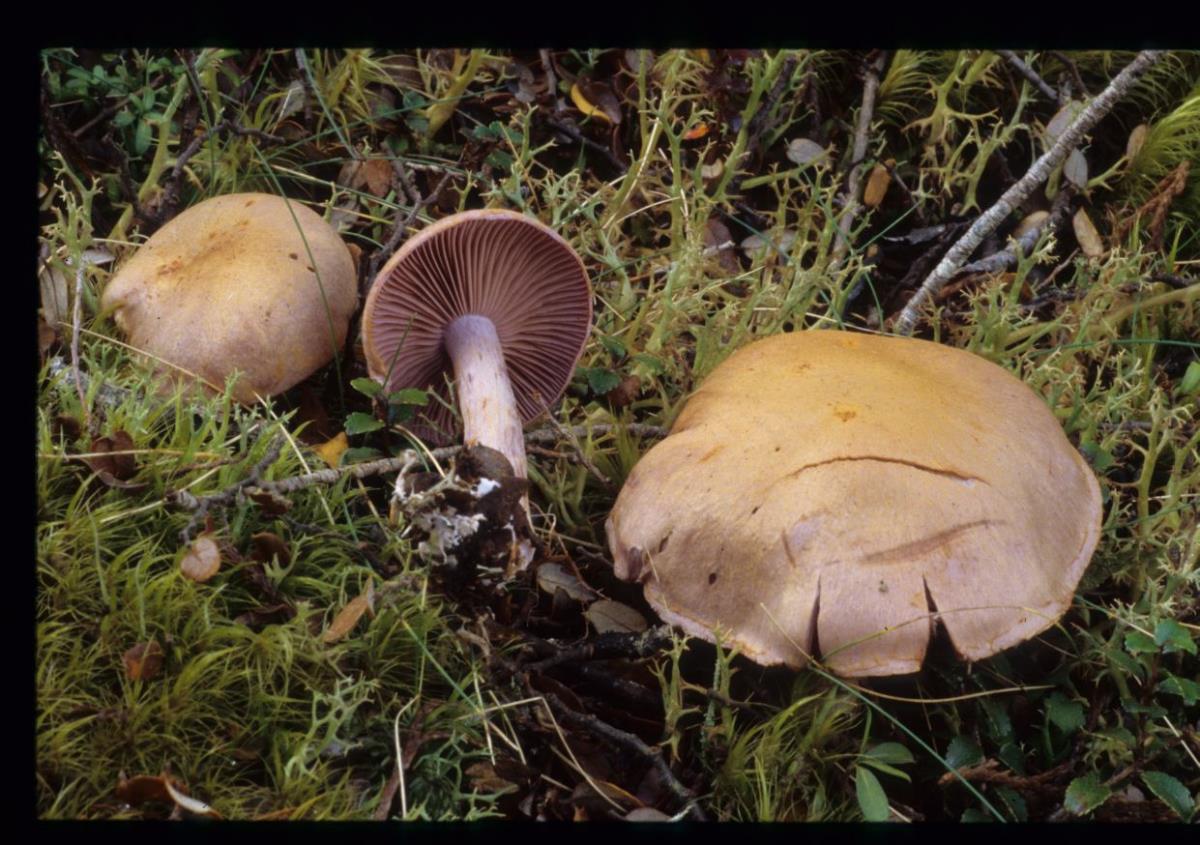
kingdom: Fungi
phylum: Basidiomycota
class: Agaricomycetes
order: Agaricales
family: Cortinariaceae
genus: Cortinarius
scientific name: Cortinarius
